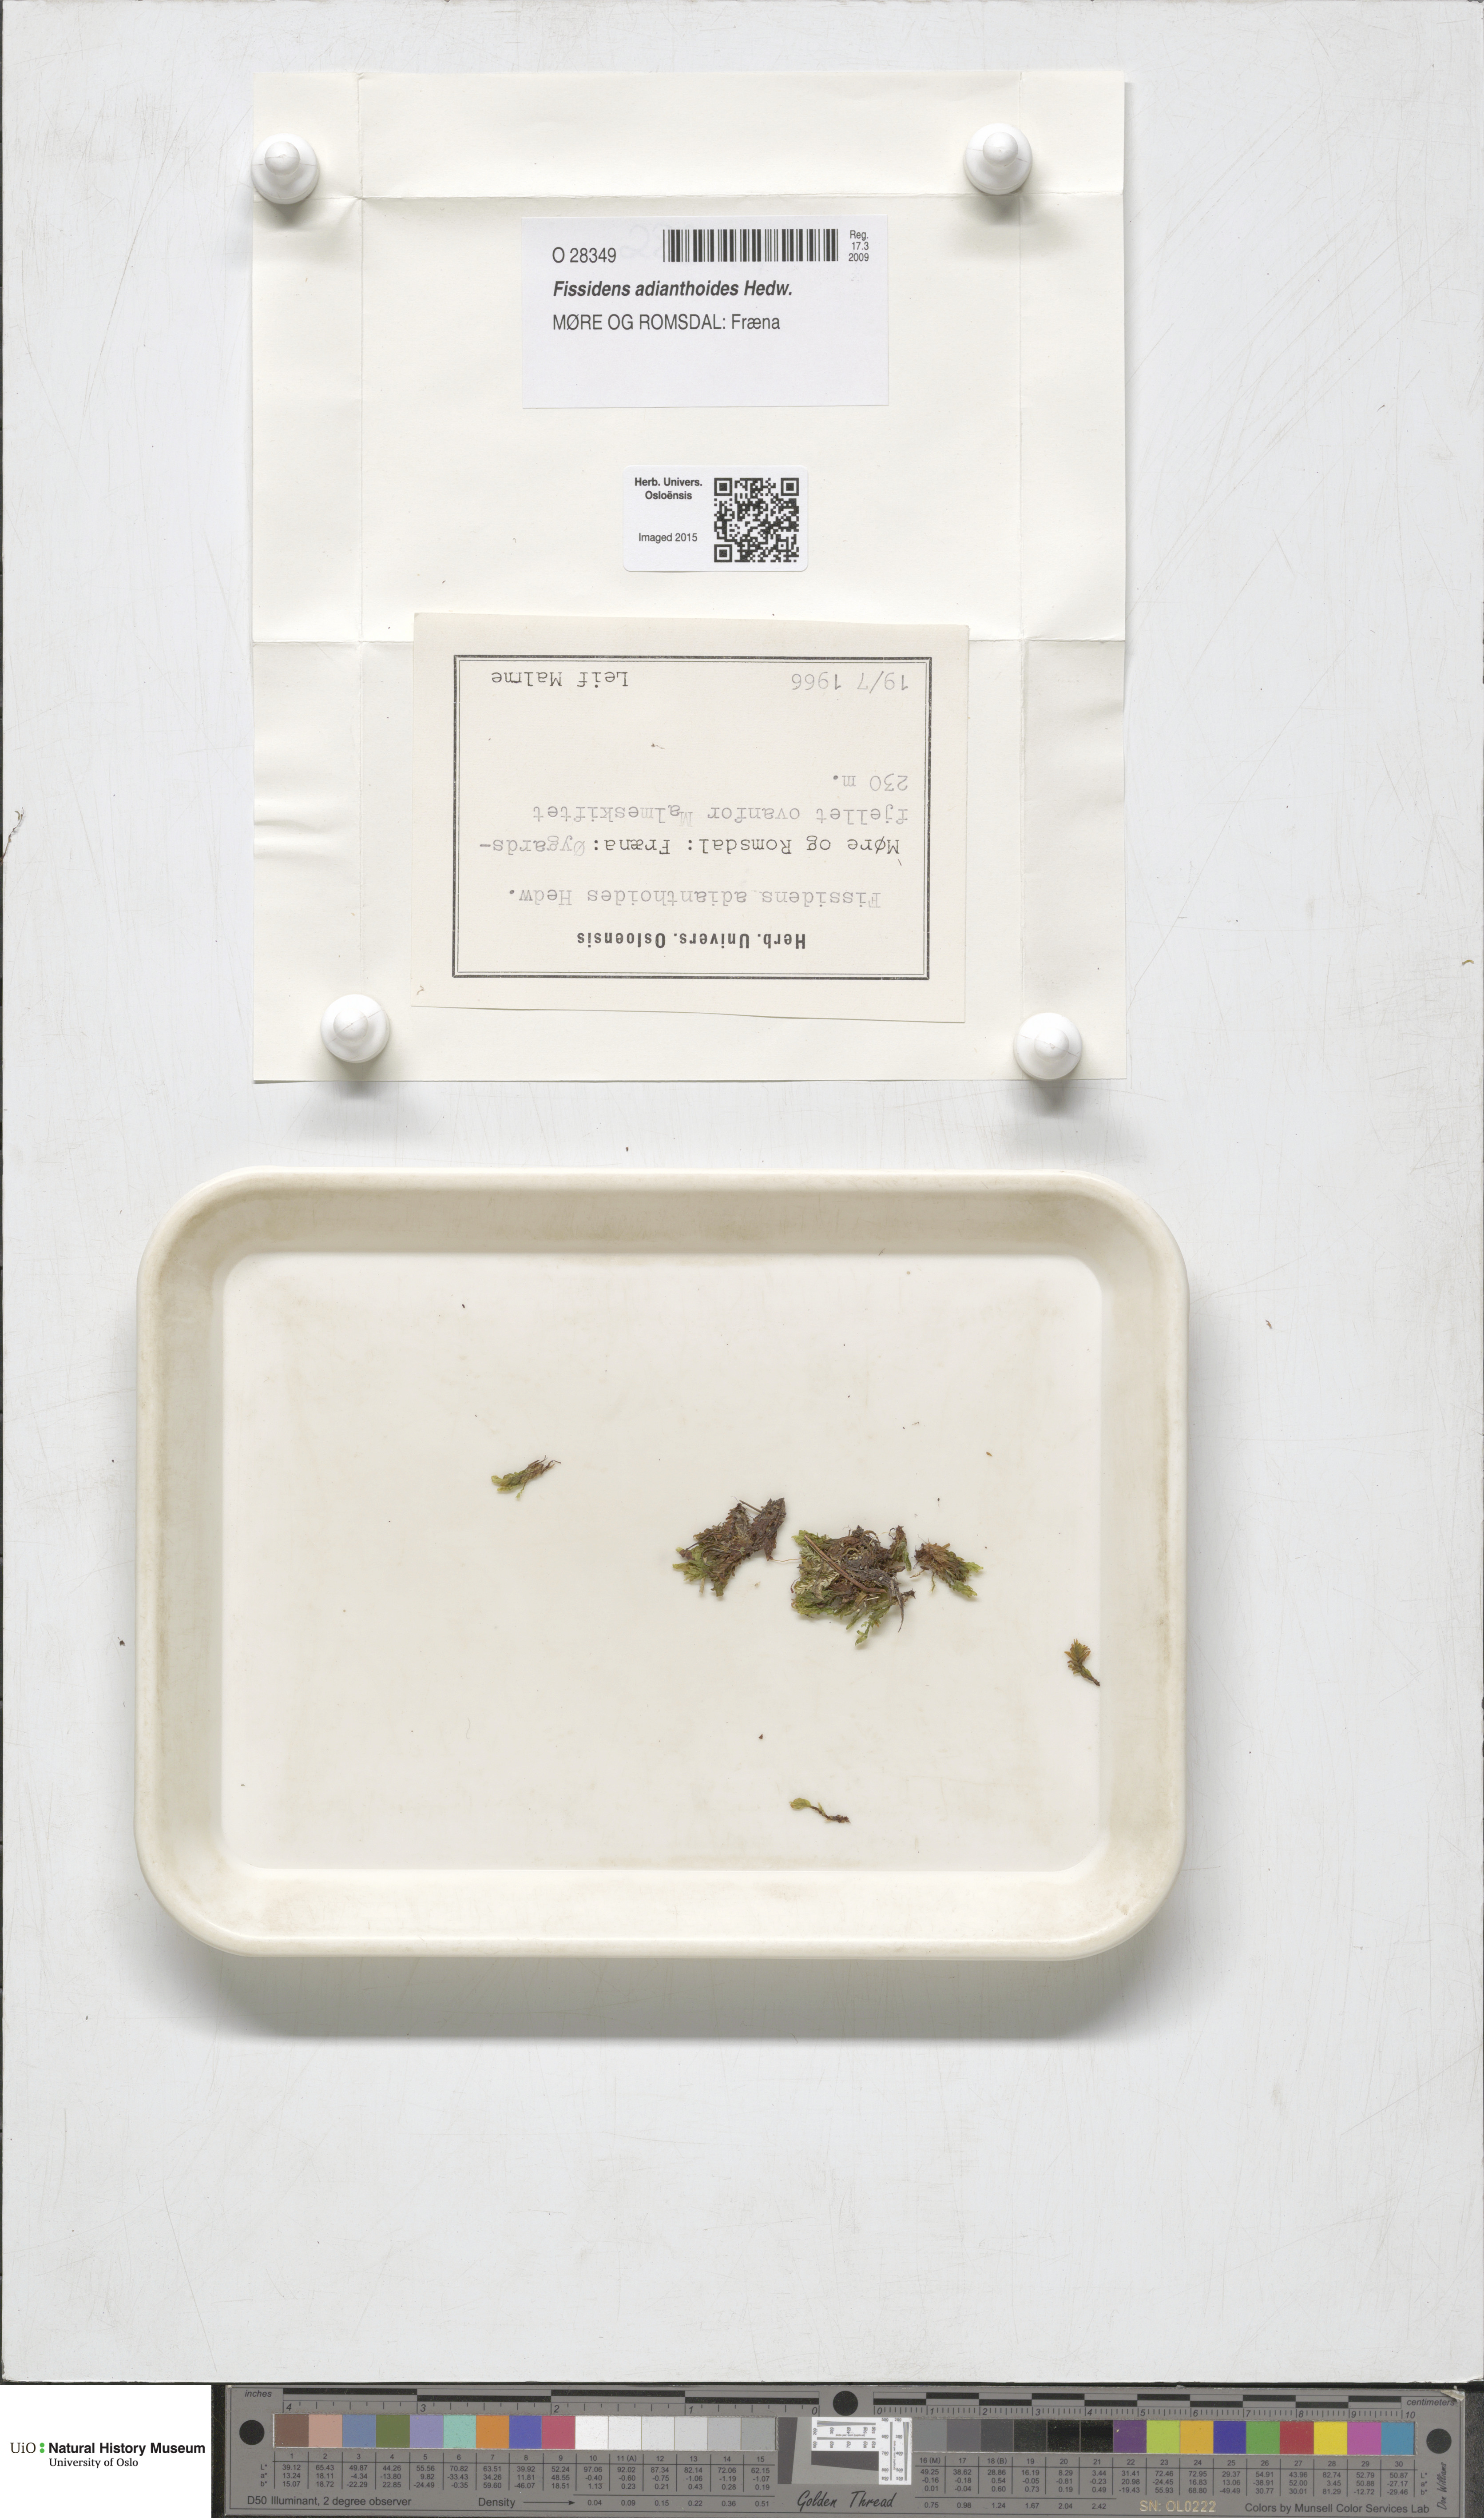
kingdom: Plantae
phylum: Bryophyta
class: Bryopsida
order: Dicranales
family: Fissidentaceae
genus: Fissidens
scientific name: Fissidens adianthoides
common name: Maidenhair pocket moss
